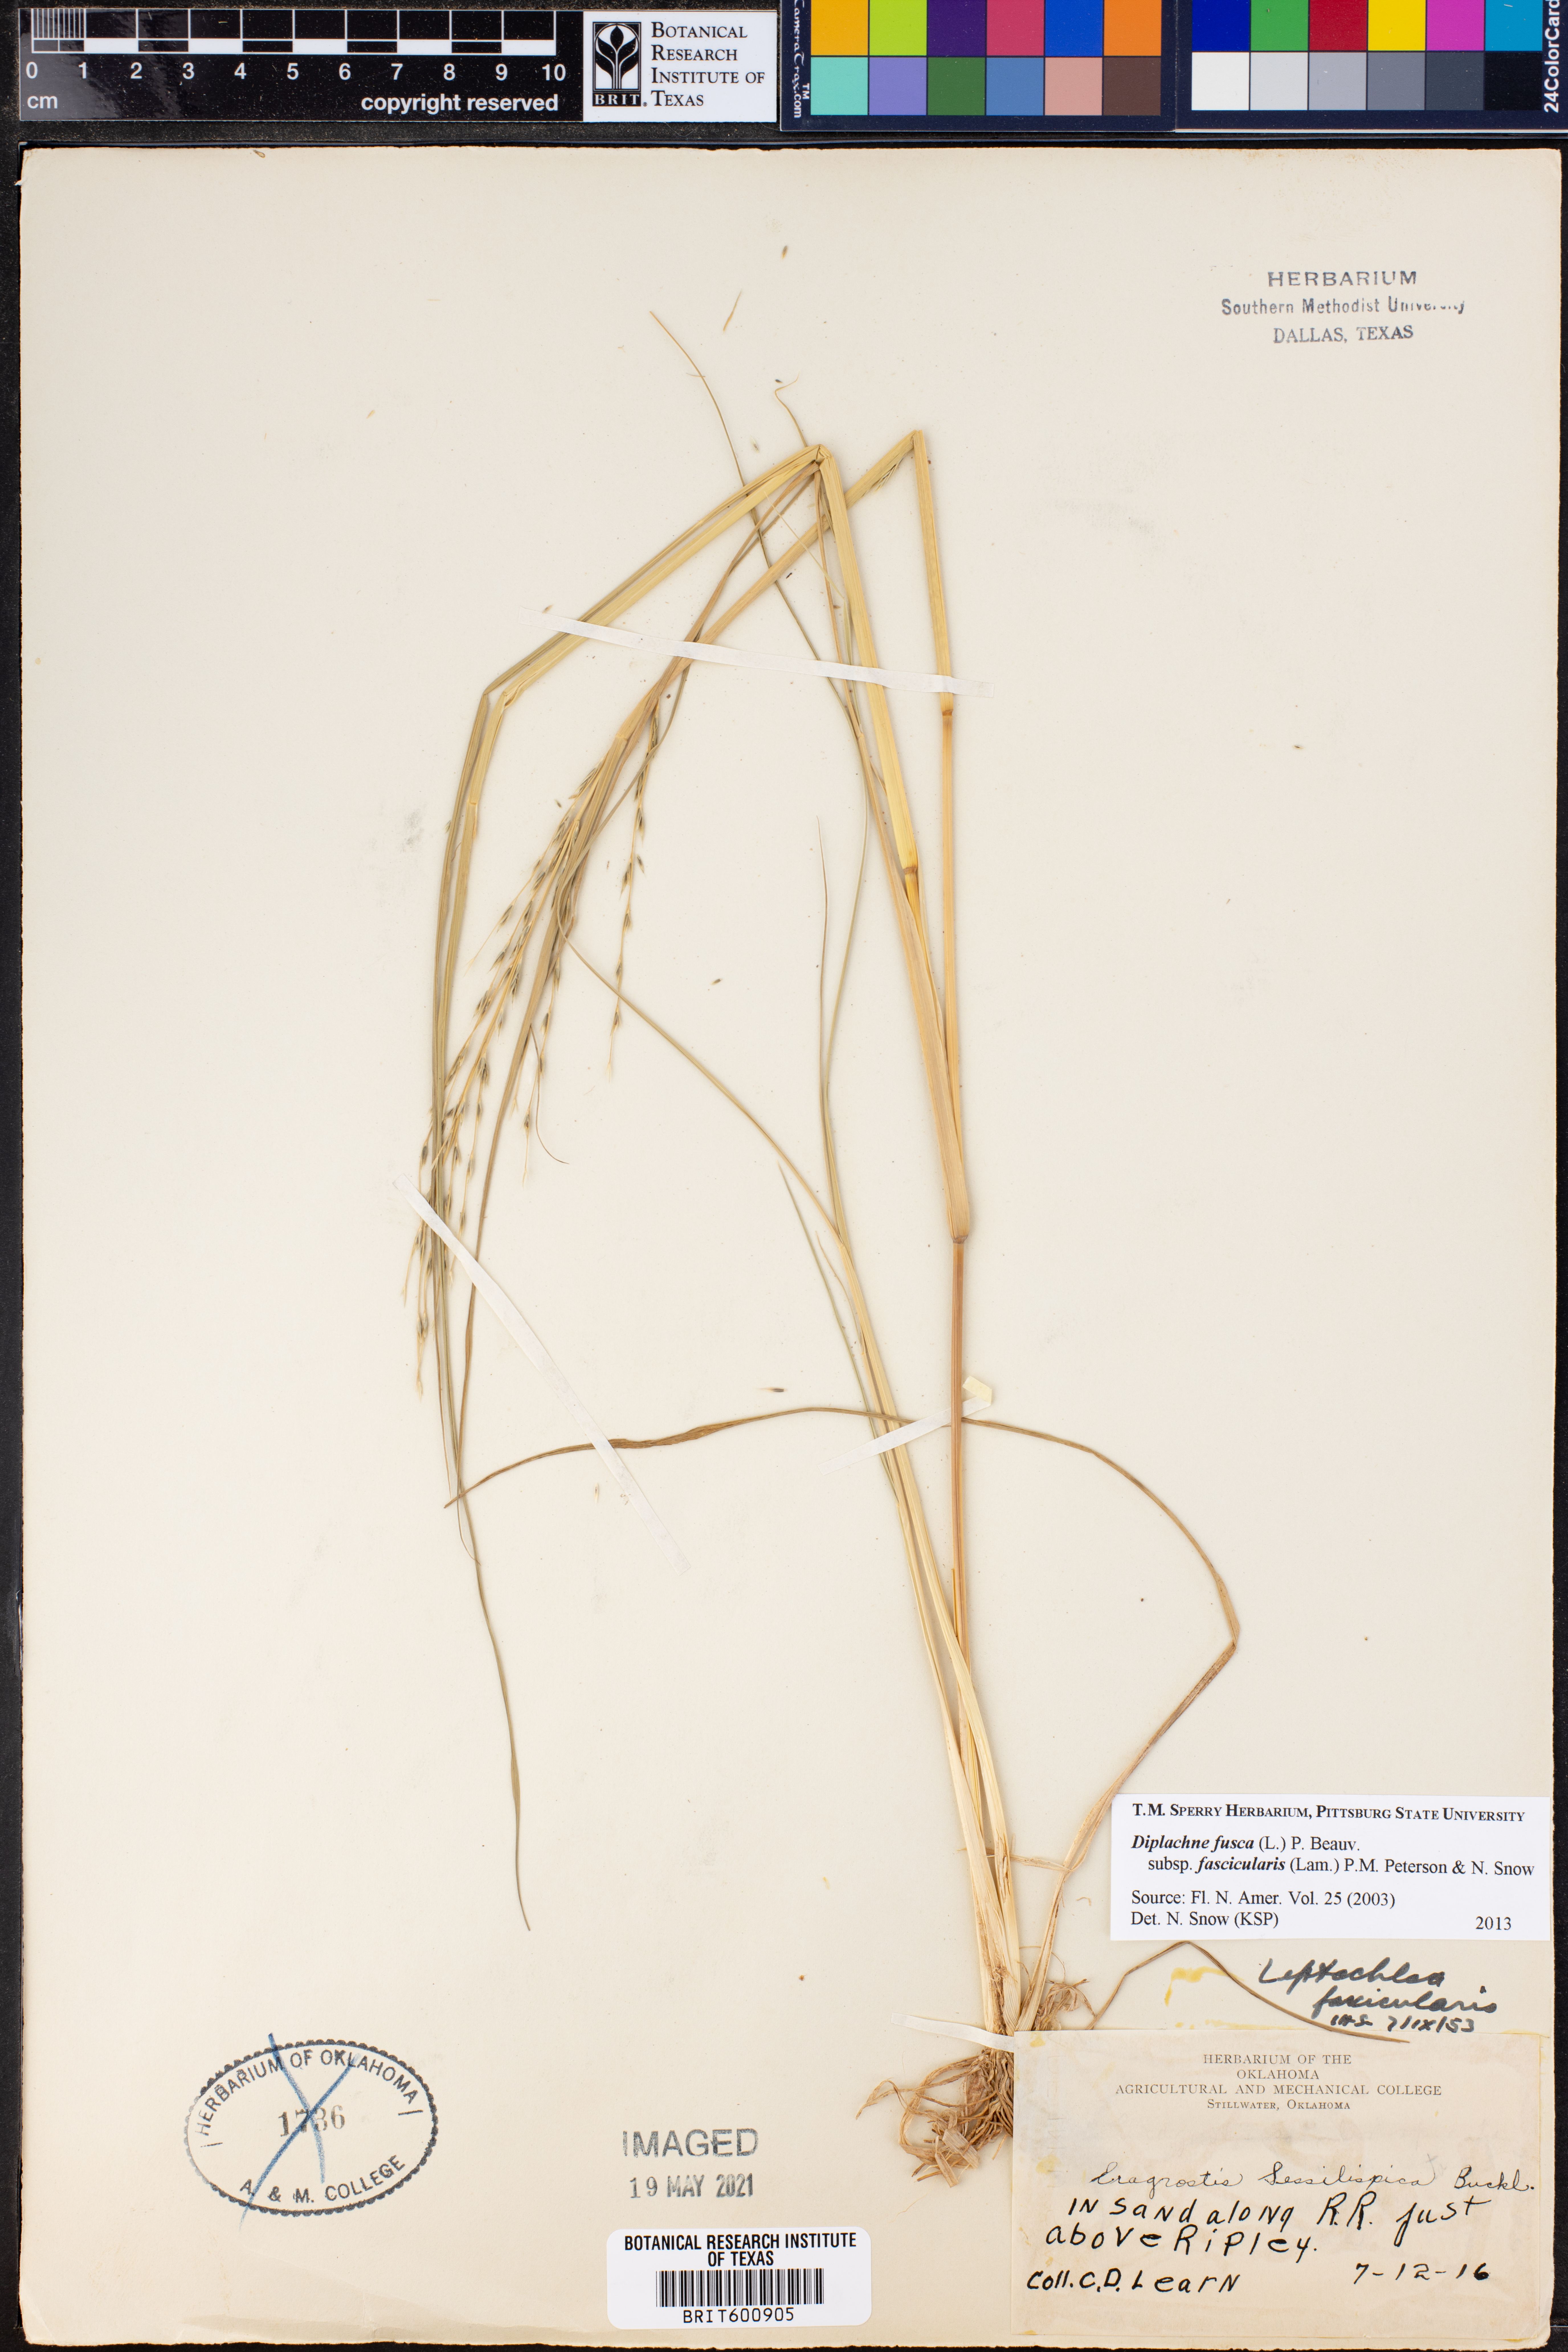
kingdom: Plantae
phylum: Tracheophyta
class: Liliopsida
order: Poales
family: Poaceae
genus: Diplachne
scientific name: Diplachne fusca
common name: Brown beetle grass
